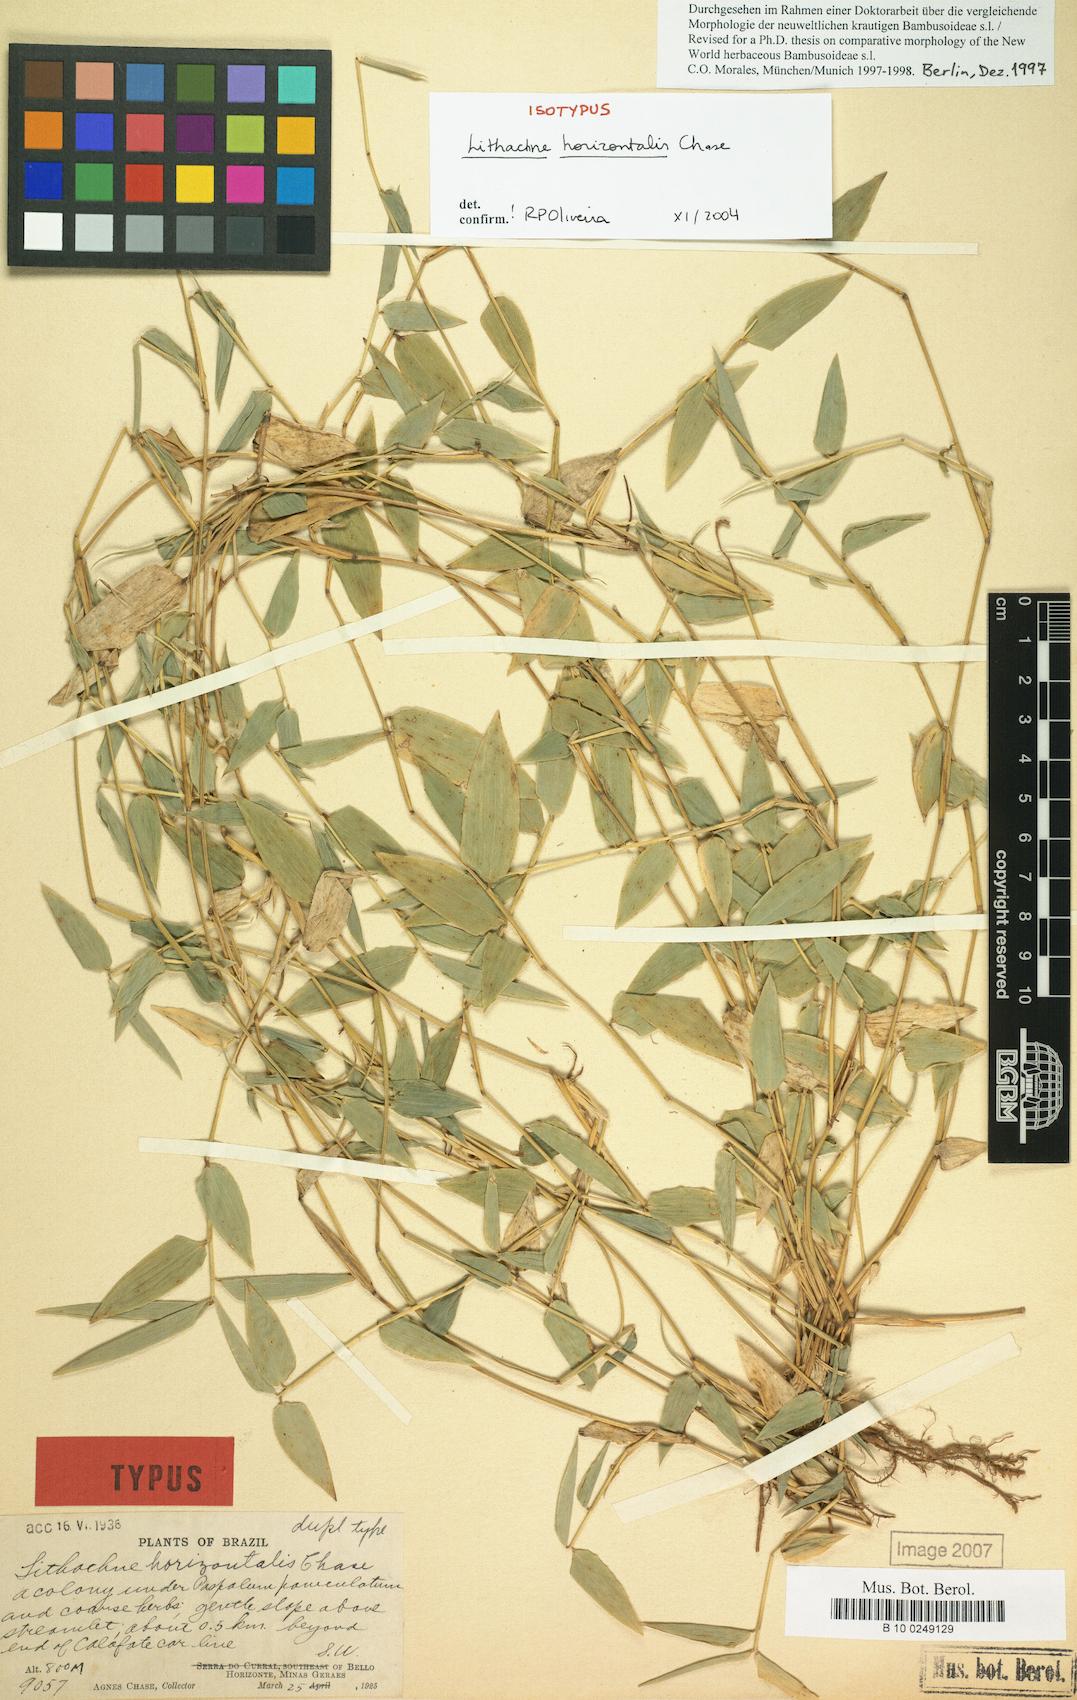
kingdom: Plantae
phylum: Tracheophyta
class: Liliopsida
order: Poales
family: Poaceae
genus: Lithachne
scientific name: Lithachne horizontalis
